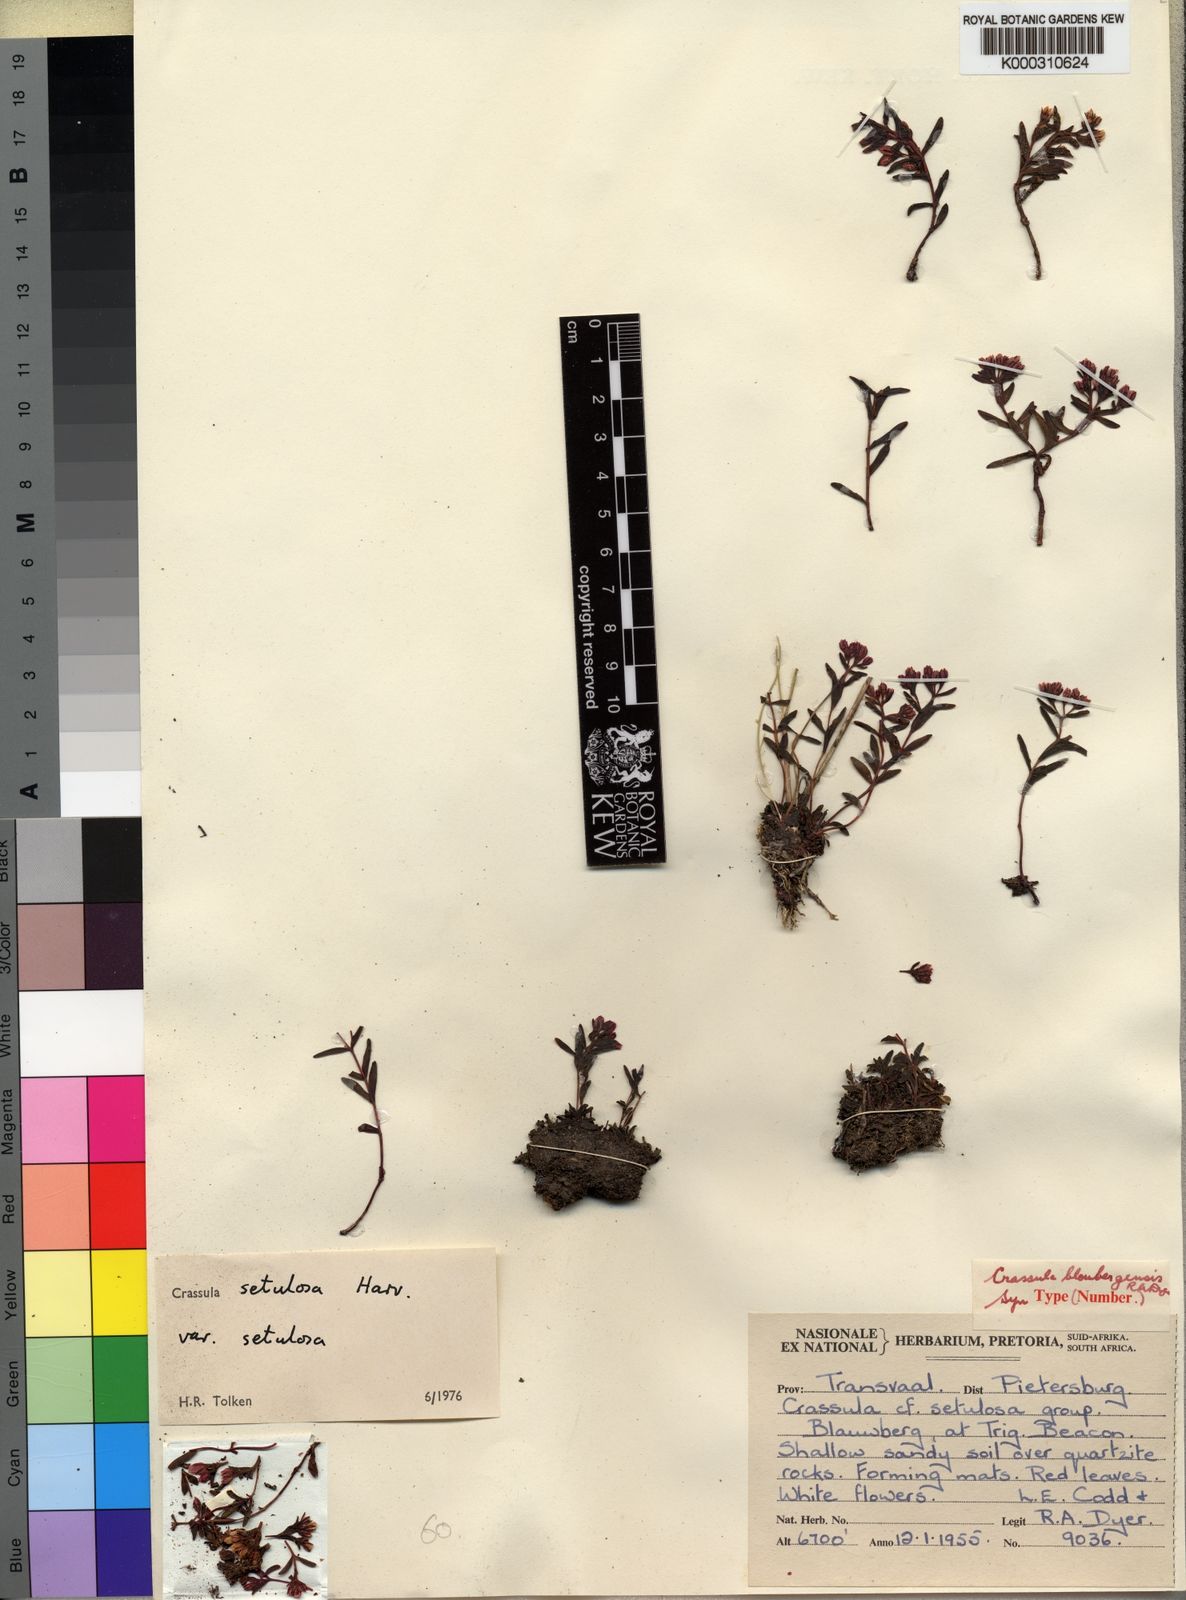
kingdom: Plantae
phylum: Tracheophyta
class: Magnoliopsida
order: Saxifragales
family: Crassulaceae
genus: Crassula
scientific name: Crassula setulosa
